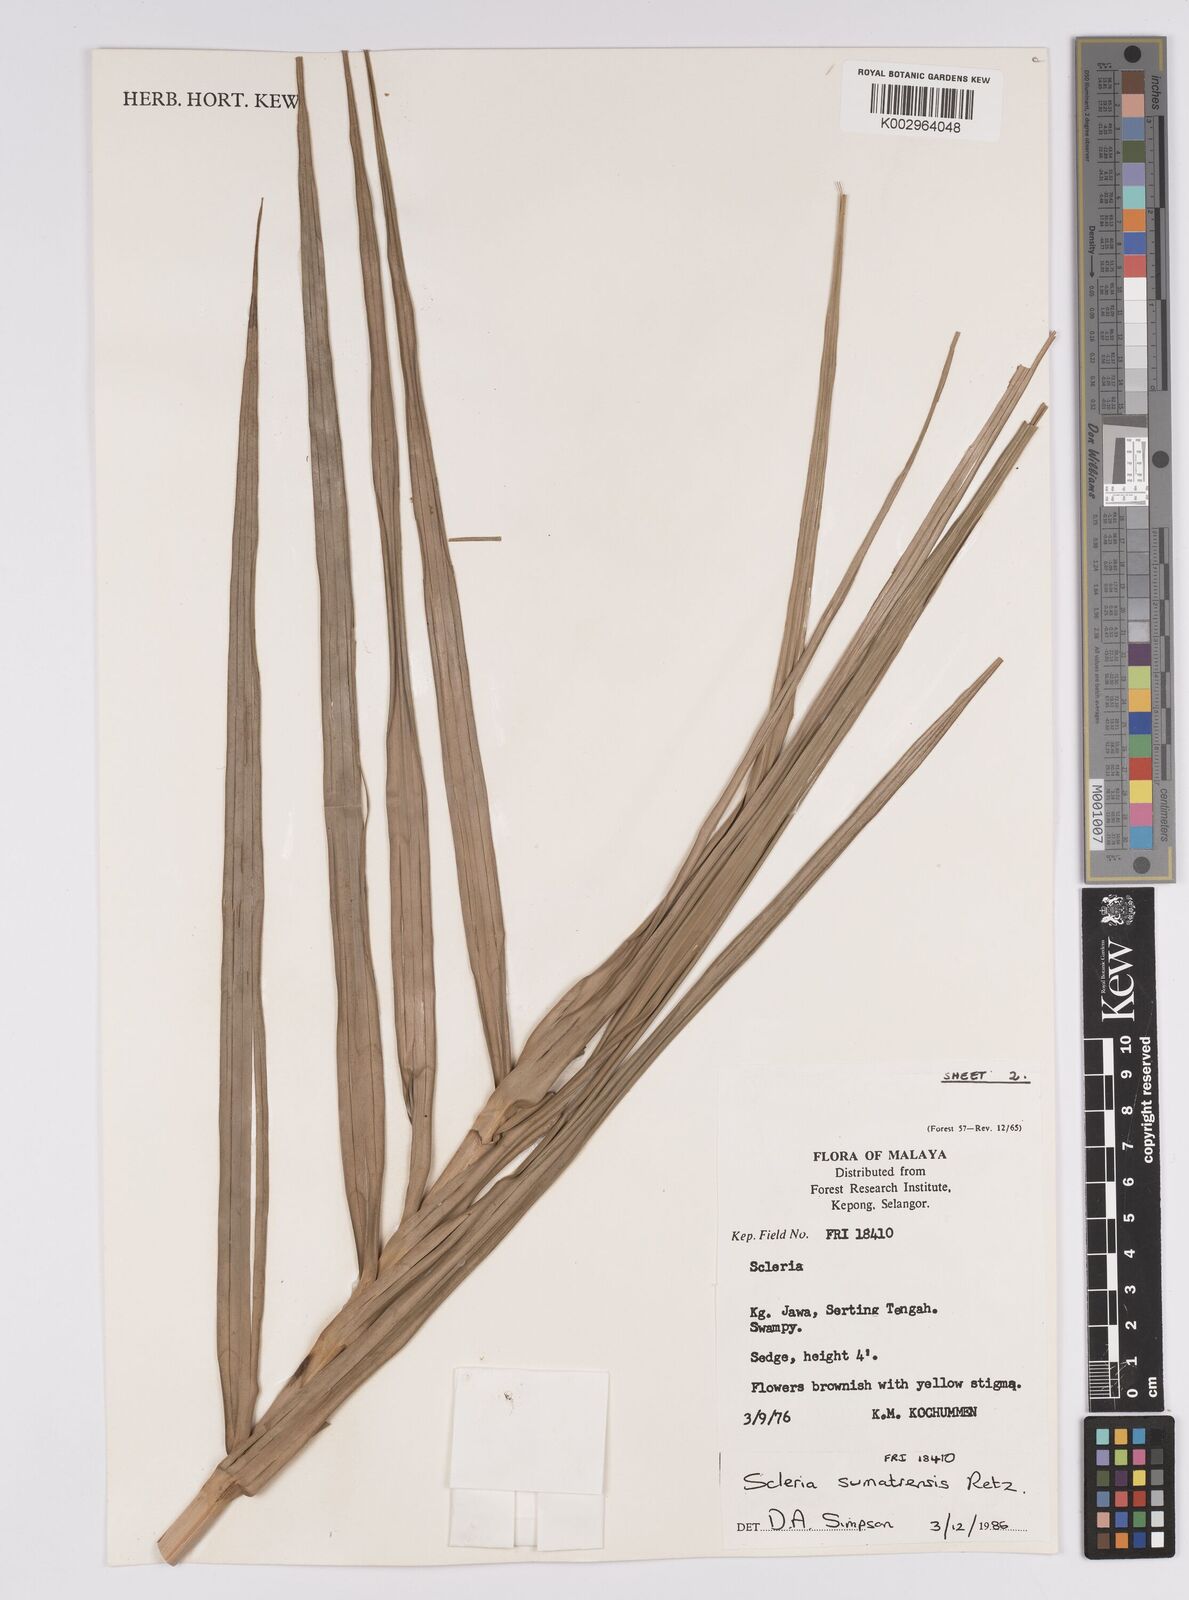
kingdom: Plantae
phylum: Tracheophyta
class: Liliopsida
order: Poales
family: Cyperaceae
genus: Scleria
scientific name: Scleria sumatrensis
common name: Sumatran scleria
